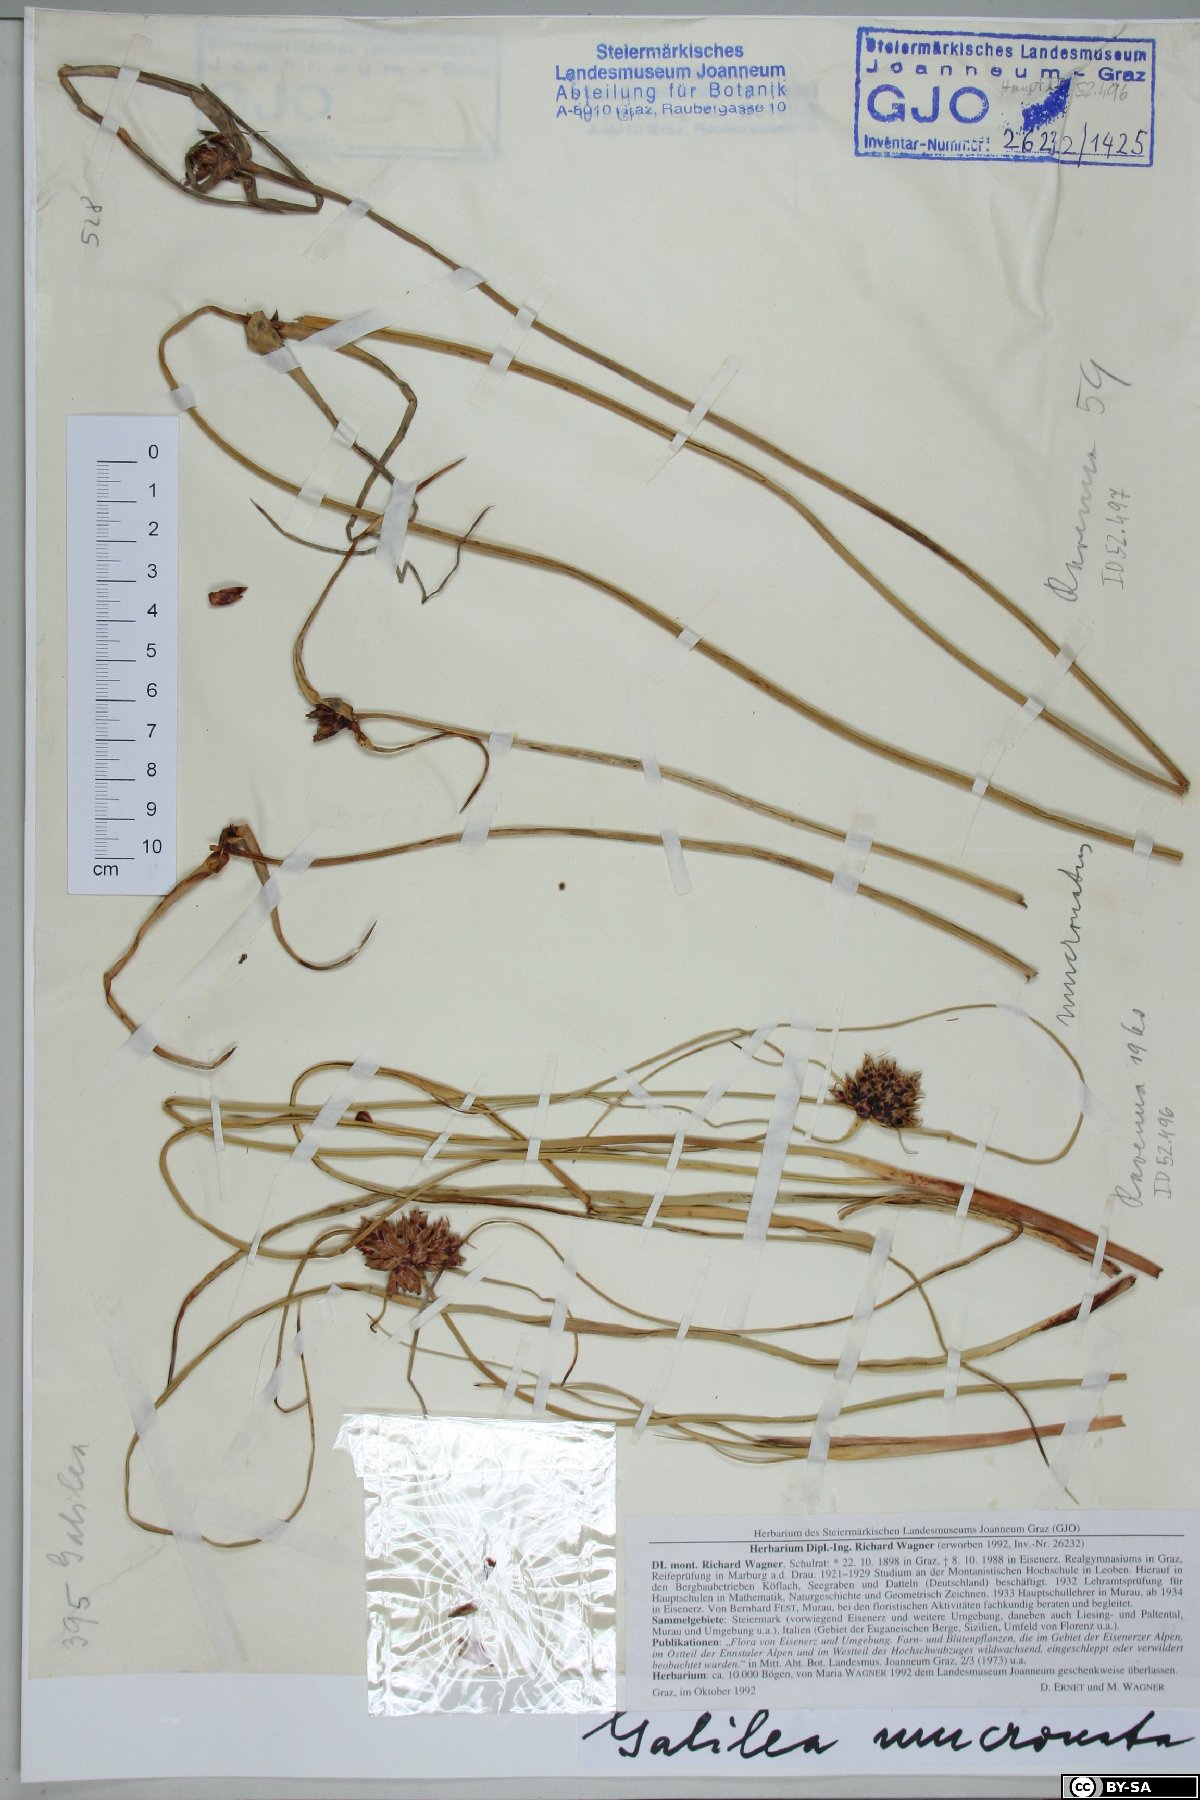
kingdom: Plantae
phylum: Tracheophyta
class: Liliopsida
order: Poales
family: Cyperaceae
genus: Cyperus
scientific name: Cyperus capitatus
